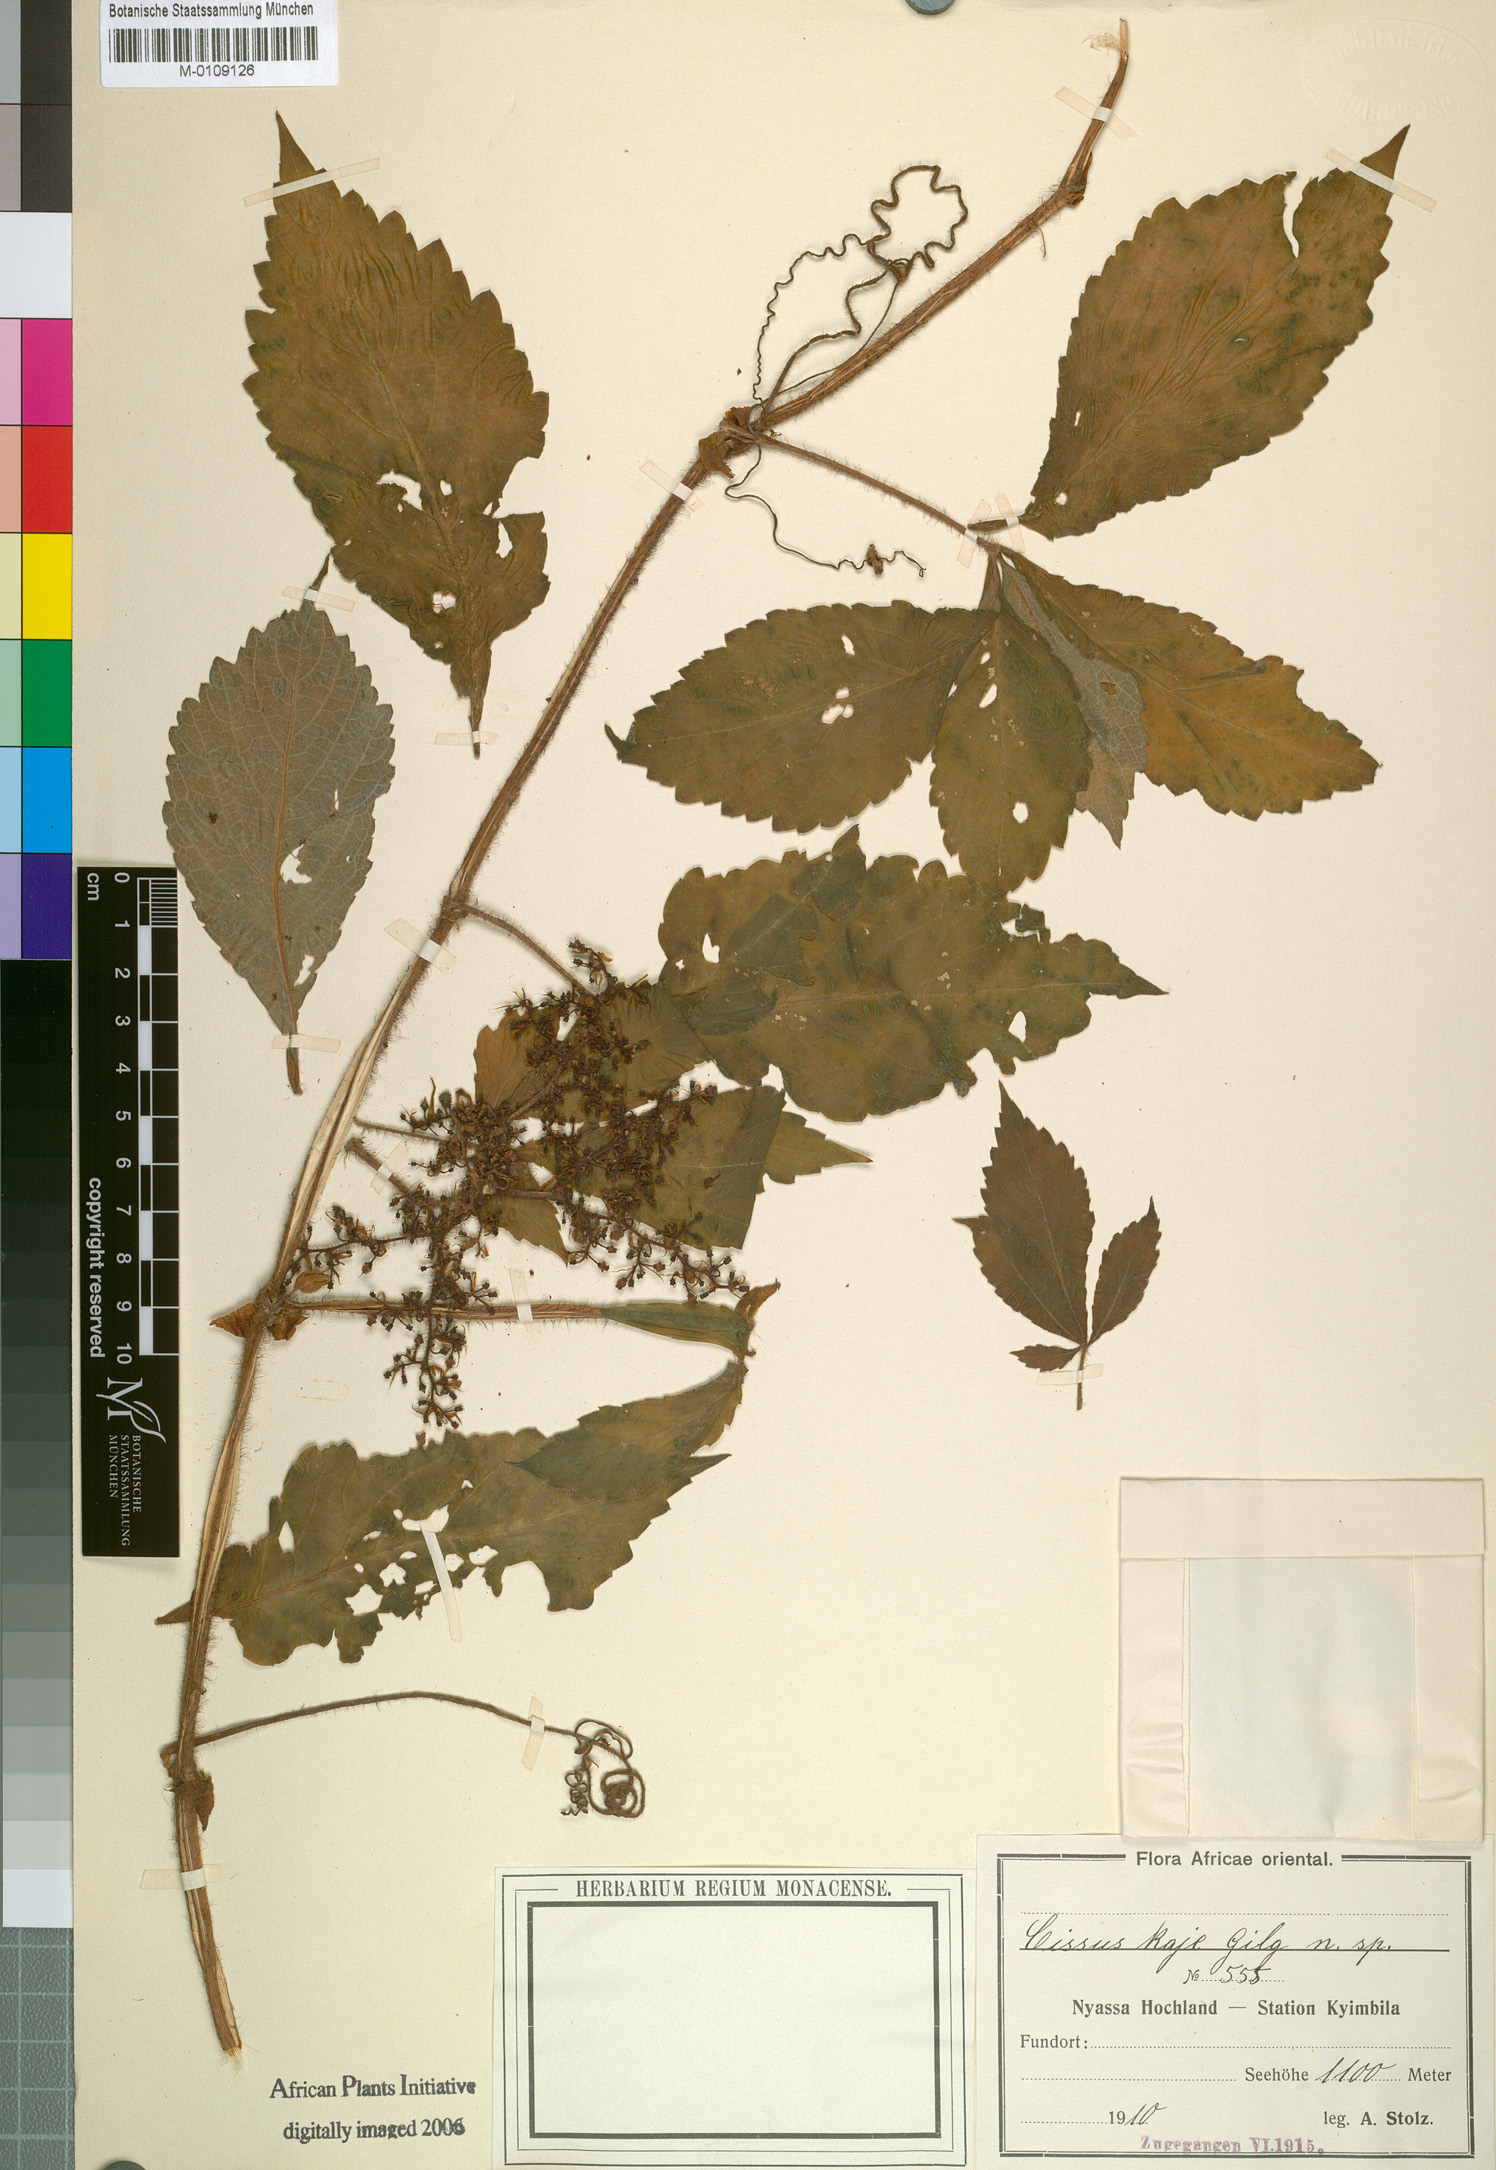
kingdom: Plantae
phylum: Tracheophyta
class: Magnoliopsida
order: Vitales
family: Vitaceae
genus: Cissus
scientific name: Cissus
